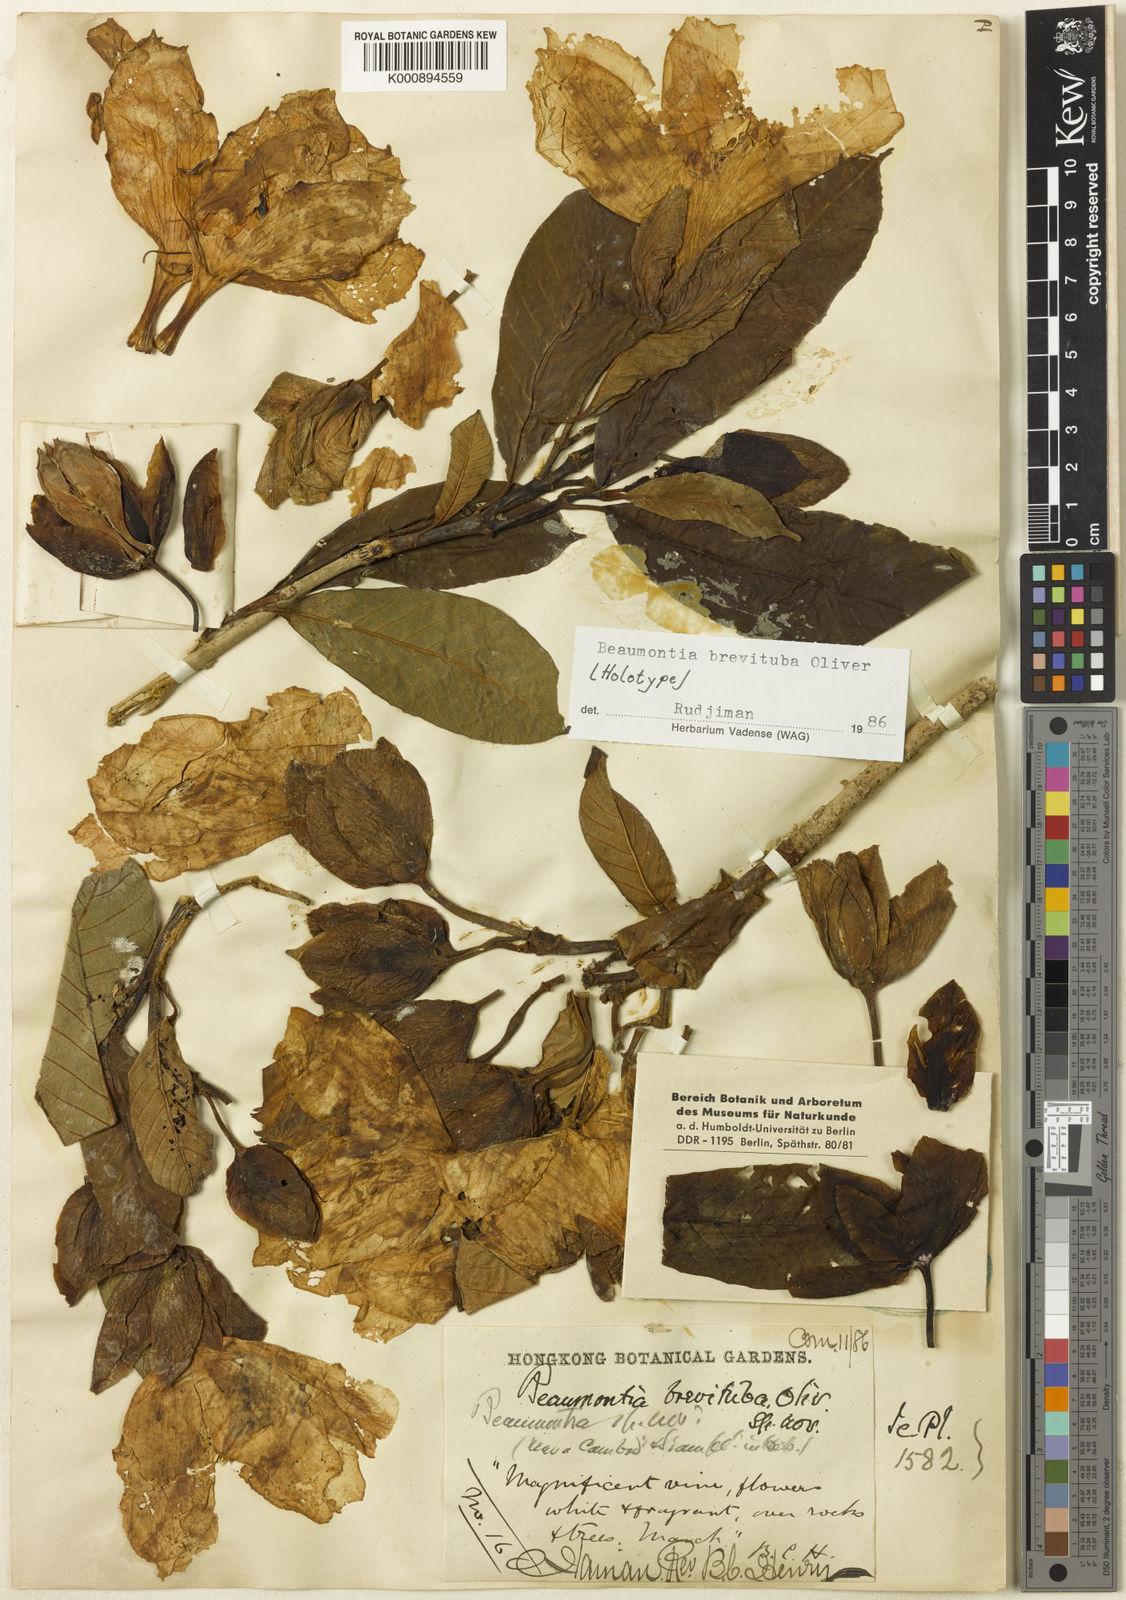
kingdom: Plantae
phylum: Tracheophyta
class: Magnoliopsida
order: Gentianales
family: Apocynaceae
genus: Beaumontia
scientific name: Beaumontia brevituba
